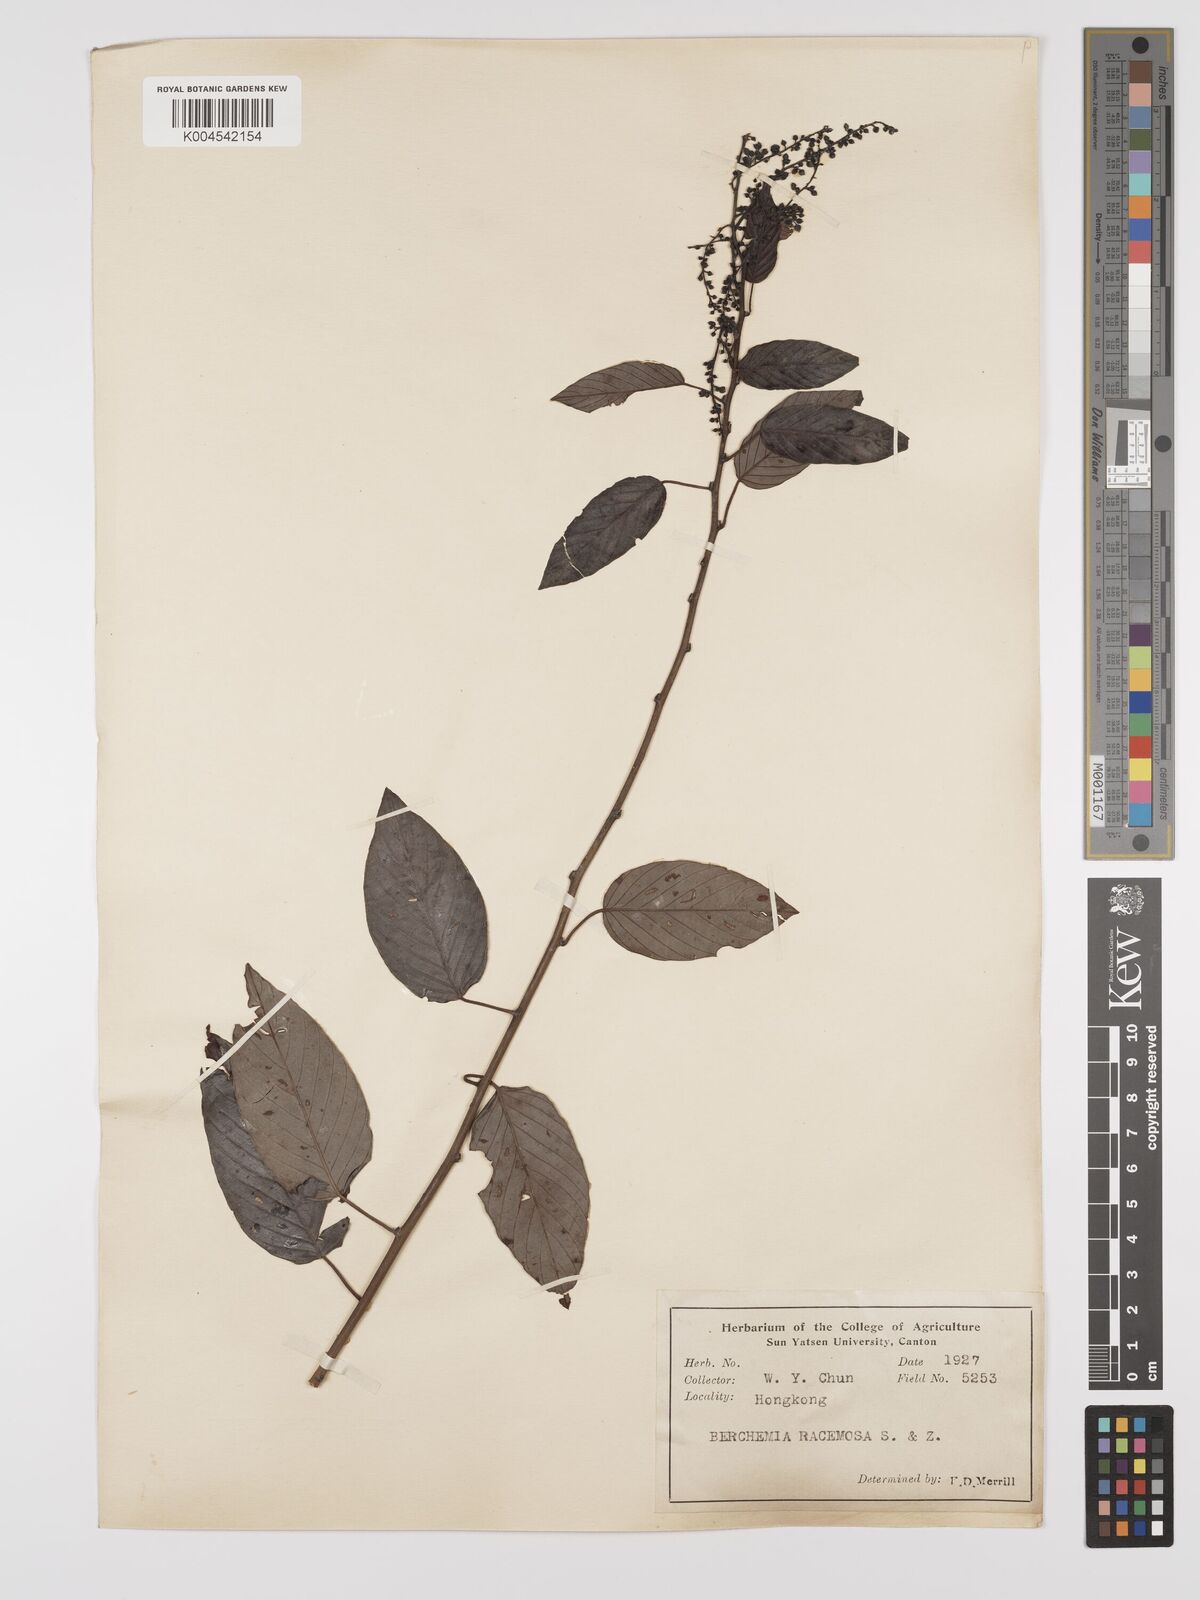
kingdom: Plantae
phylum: Tracheophyta
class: Magnoliopsida
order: Rosales
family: Rhamnaceae
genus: Berchemia
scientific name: Berchemia floribunda
